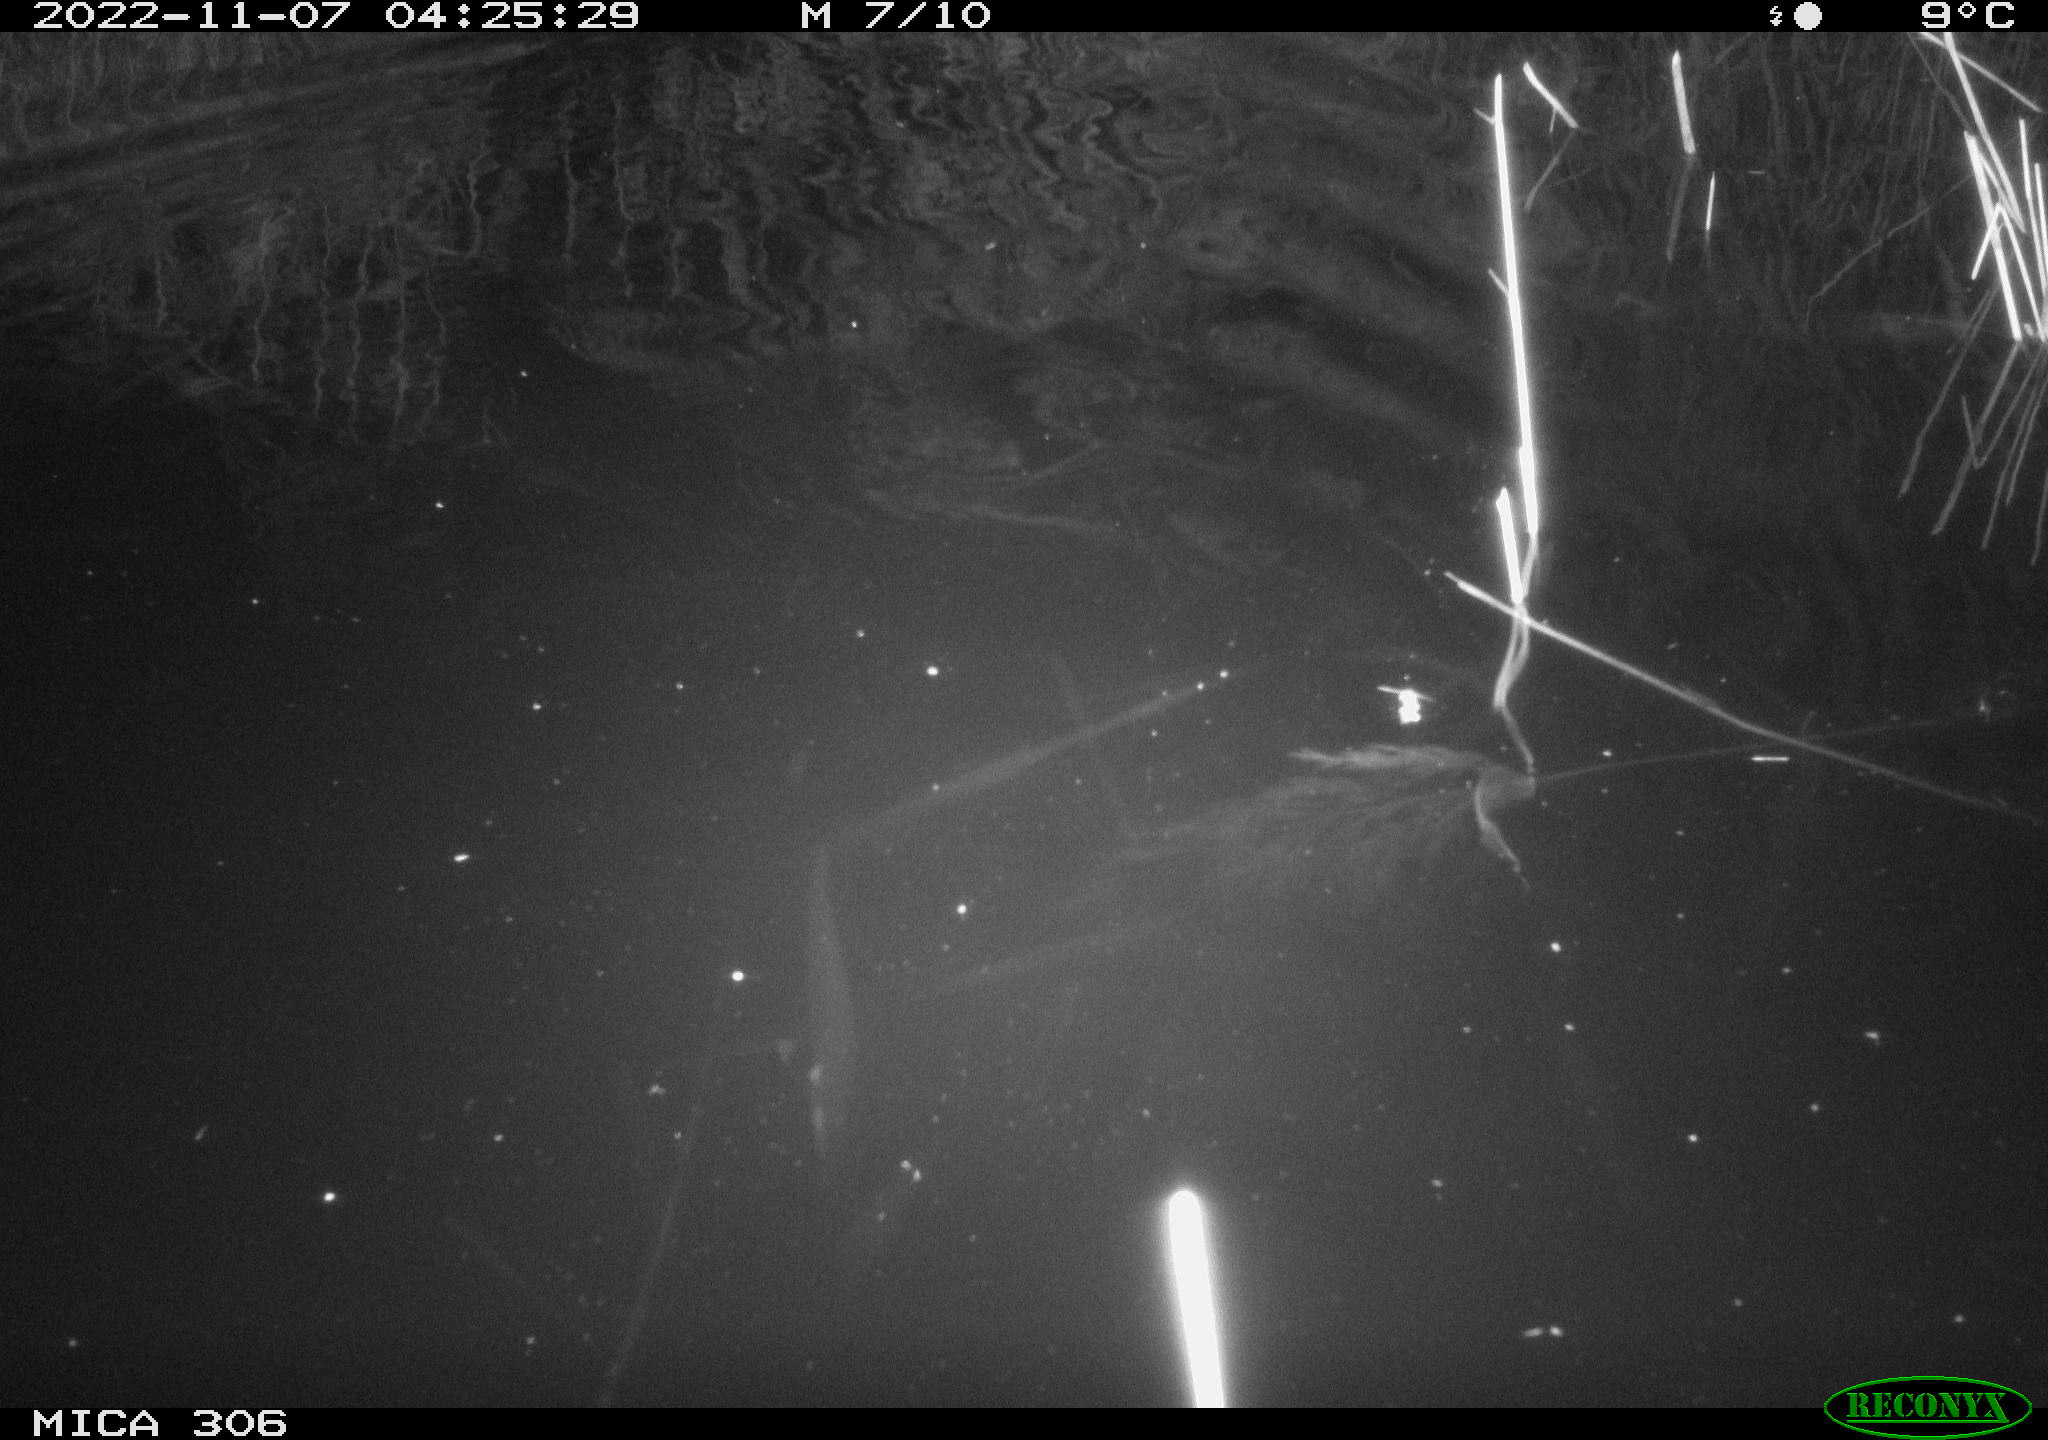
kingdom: Animalia
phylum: Chordata
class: Mammalia
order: Rodentia
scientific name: Rodentia
